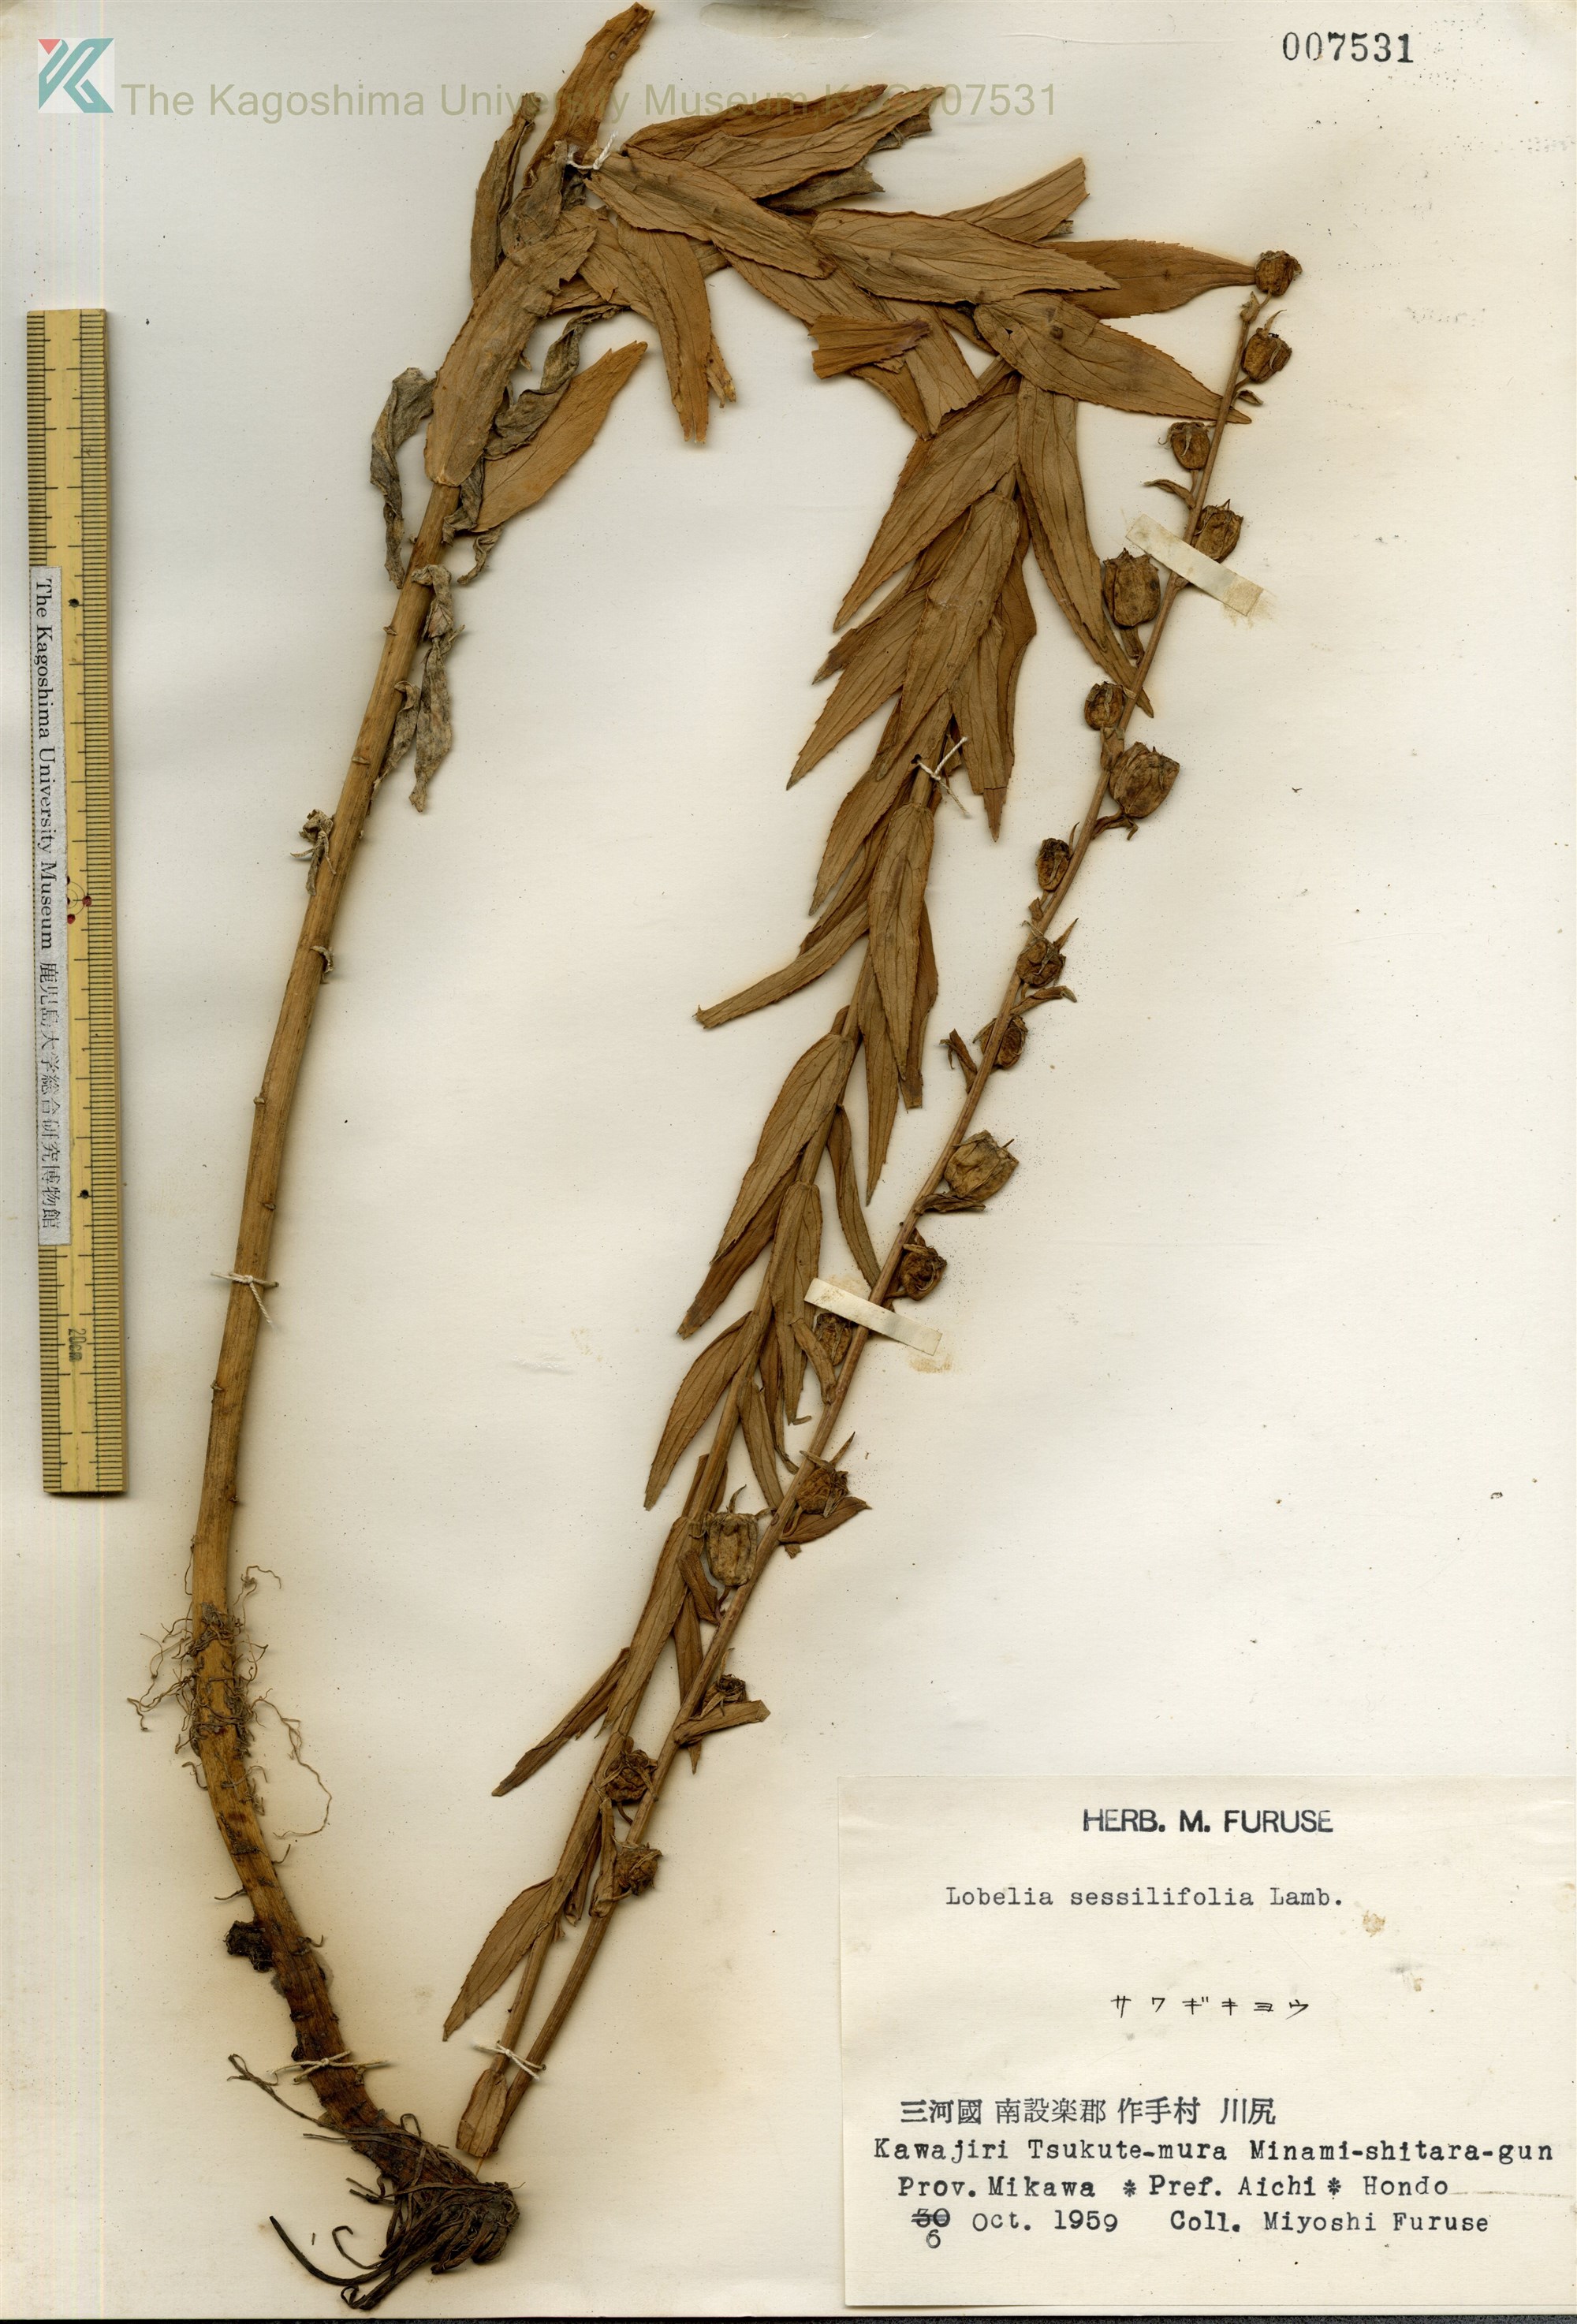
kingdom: Plantae
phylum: Tracheophyta
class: Magnoliopsida
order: Asterales
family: Campanulaceae
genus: Lobelia
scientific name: Lobelia sessilifolia
